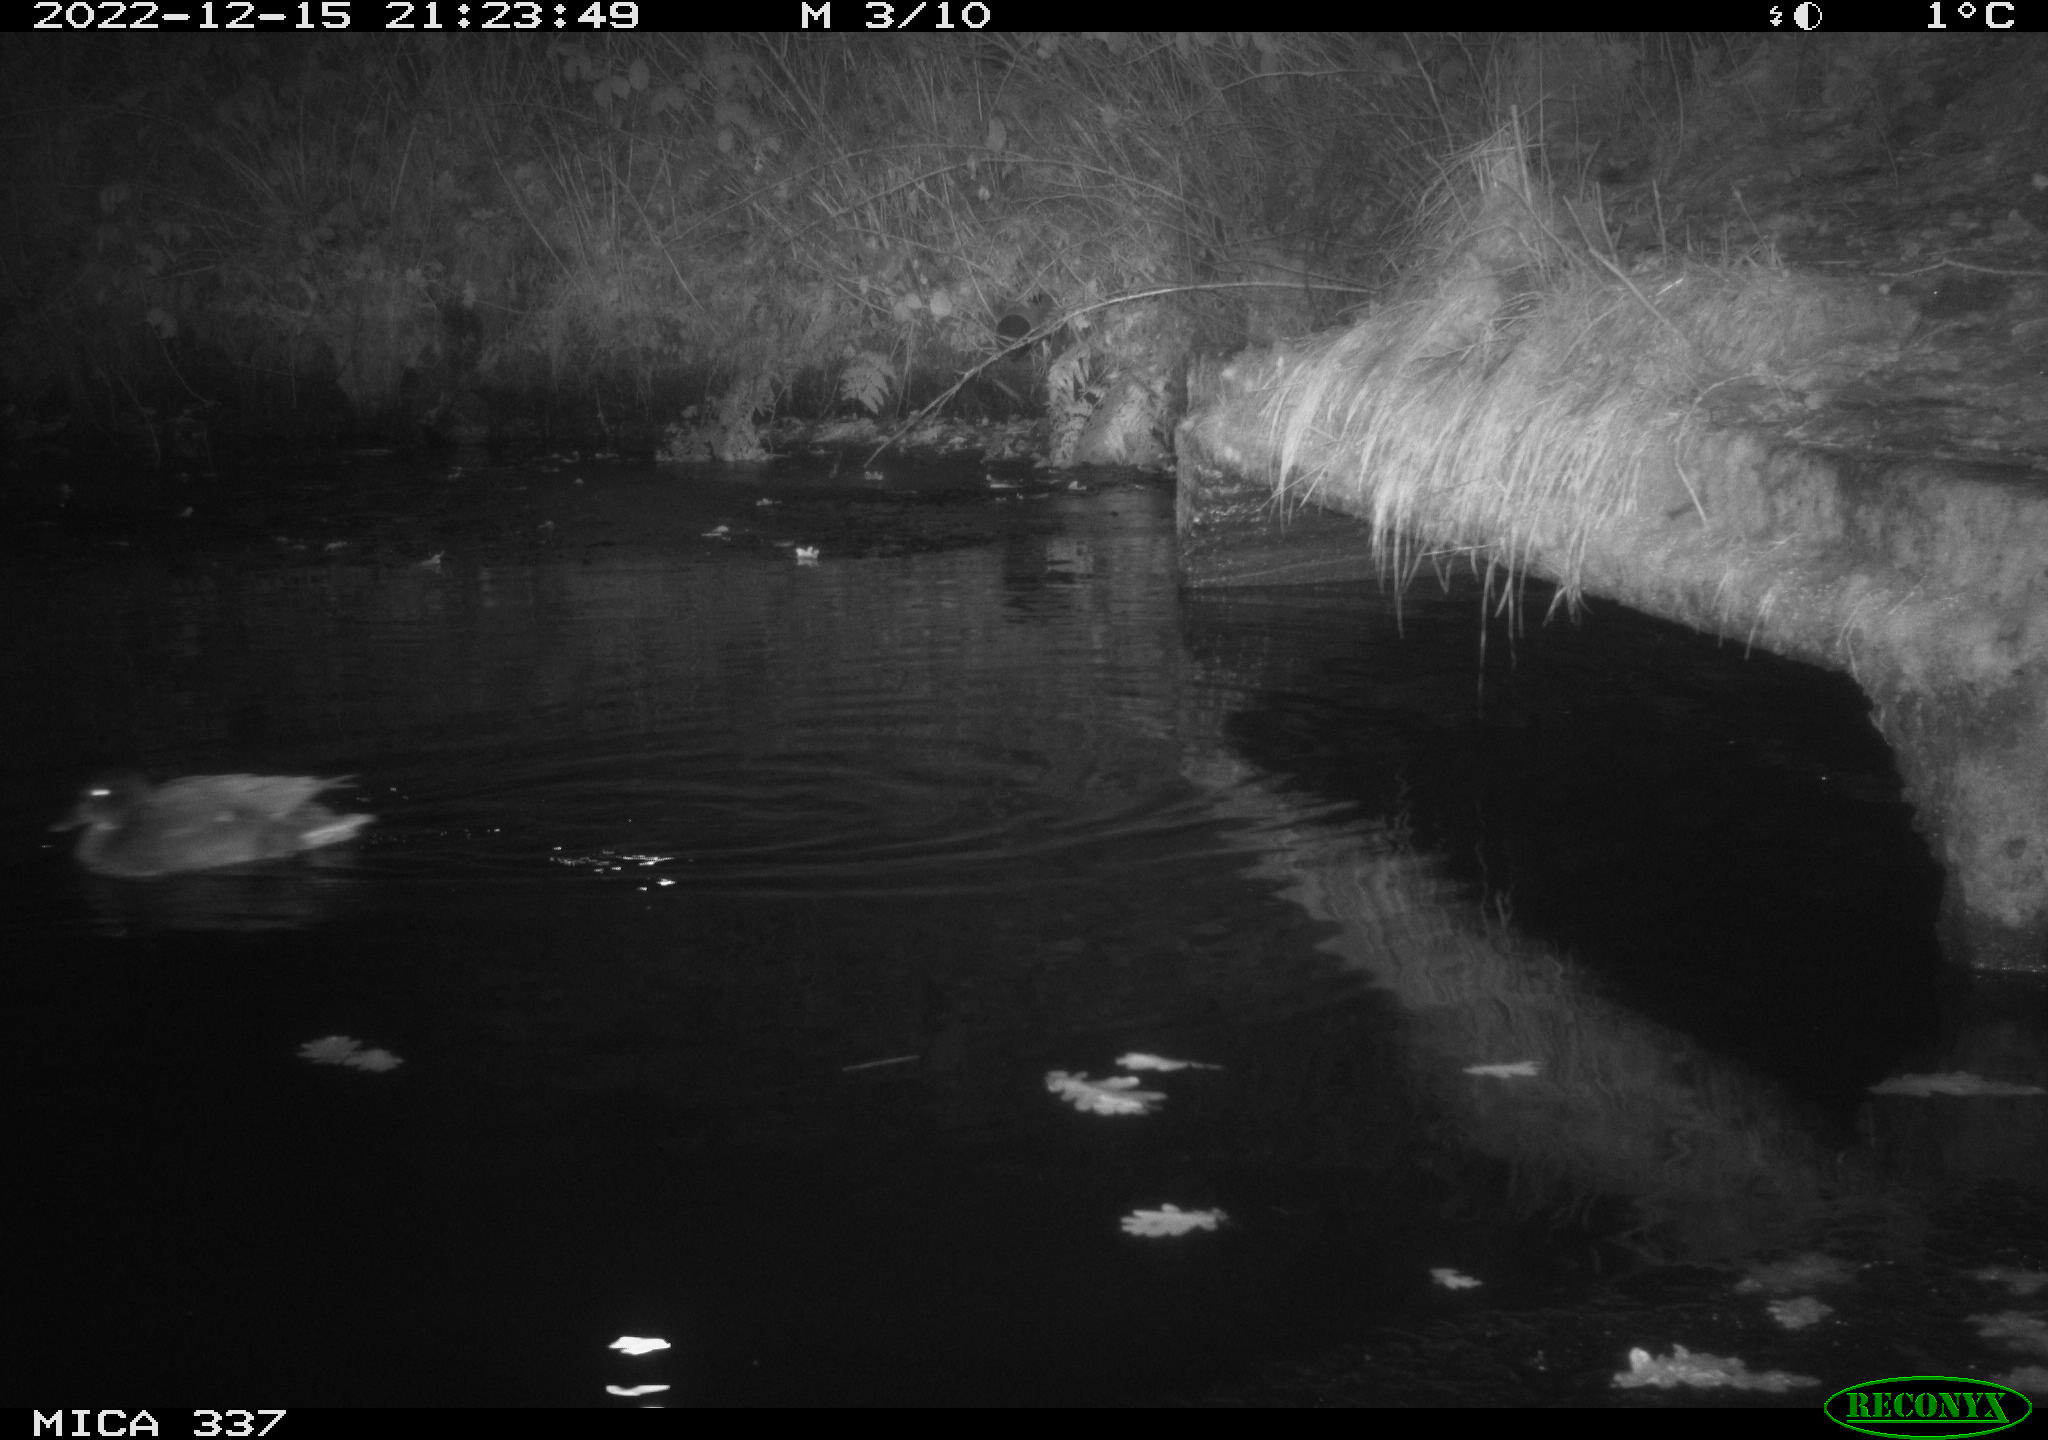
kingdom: Animalia
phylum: Chordata
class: Aves
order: Anseriformes
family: Anatidae
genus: Anas
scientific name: Anas
